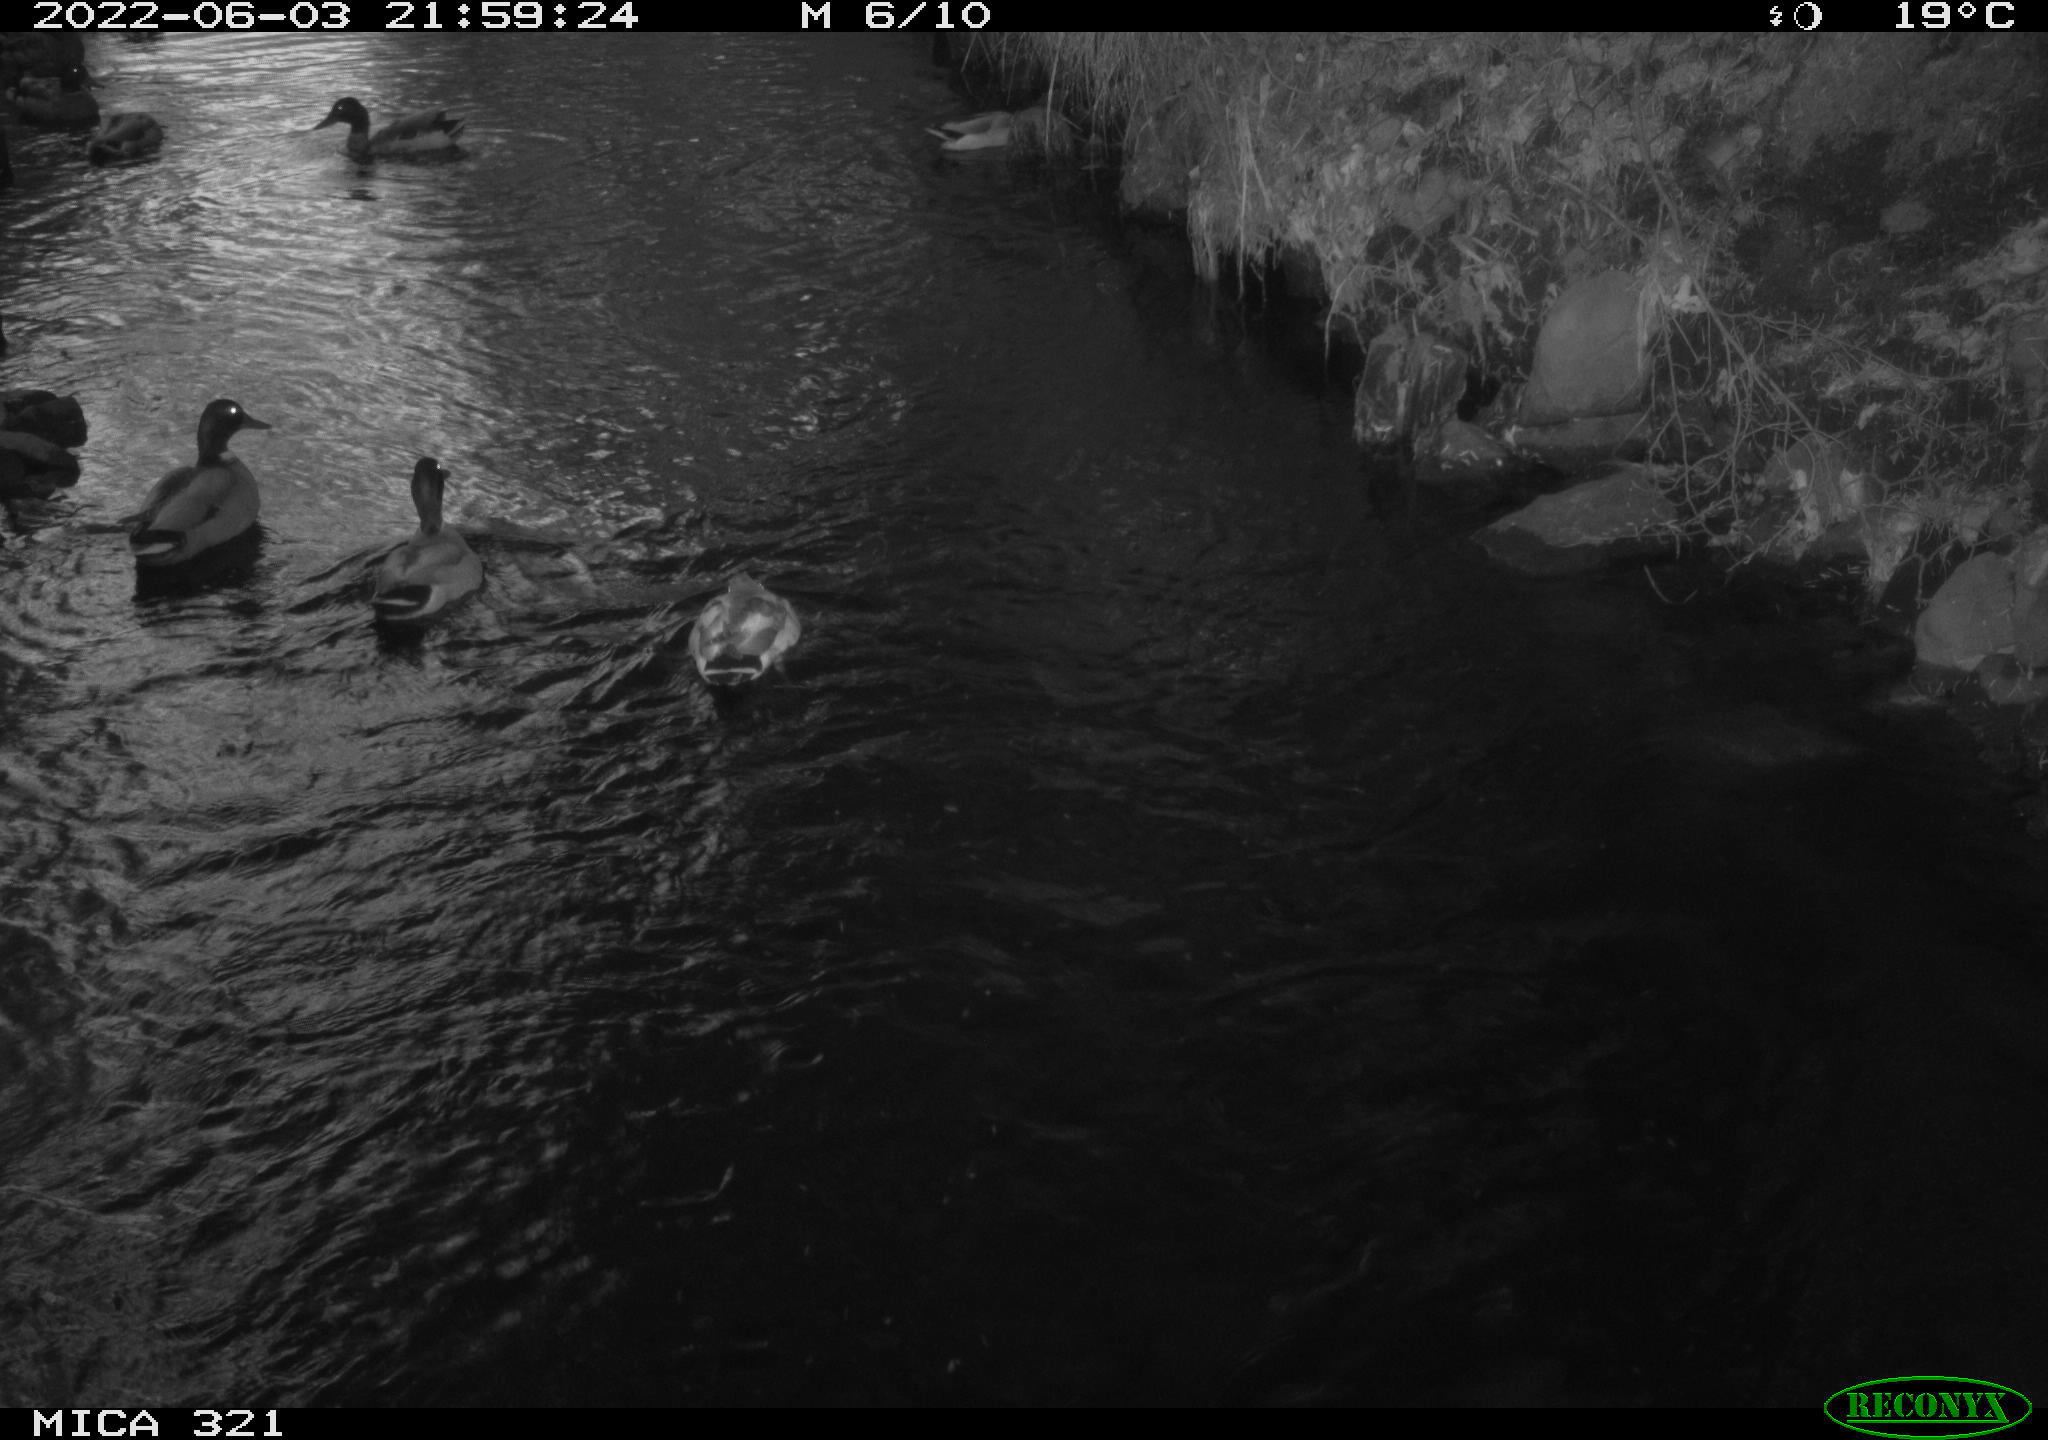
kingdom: Animalia
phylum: Chordata
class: Aves
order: Anseriformes
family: Anatidae
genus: Anas
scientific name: Anas platyrhynchos
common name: Mallard
